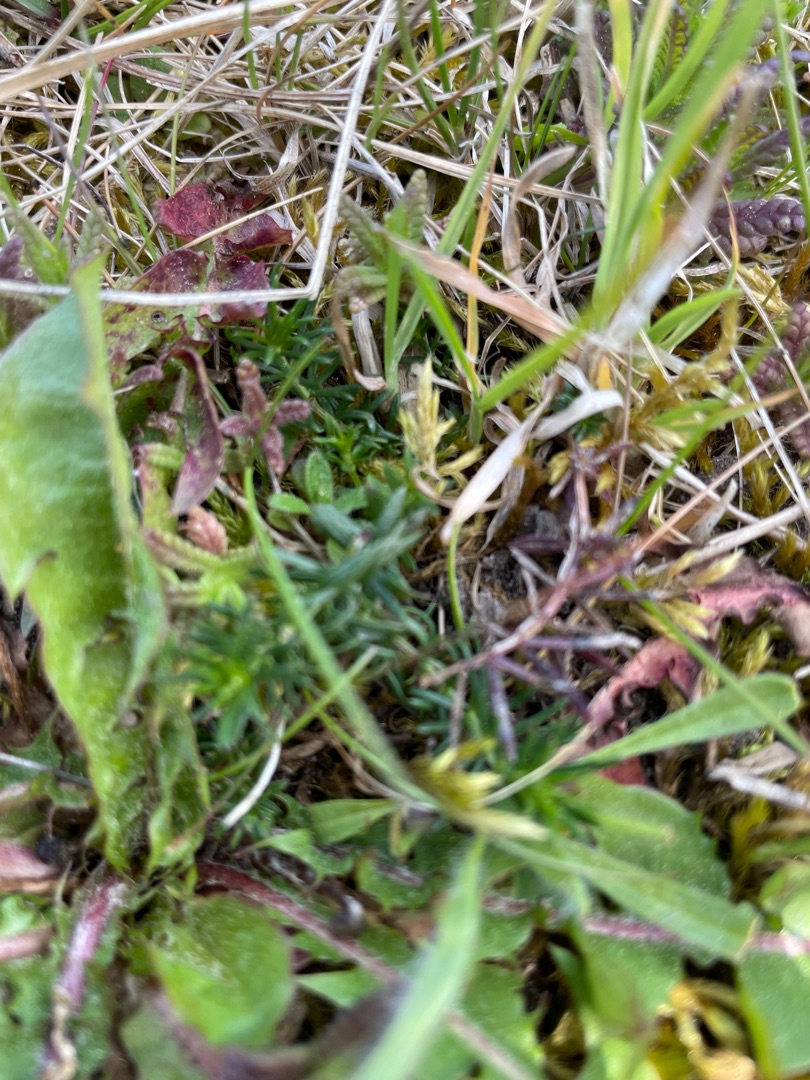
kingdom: Plantae
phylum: Tracheophyta
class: Magnoliopsida
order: Gentianales
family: Rubiaceae
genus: Galium
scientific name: Galium verum
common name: Gul snerre
